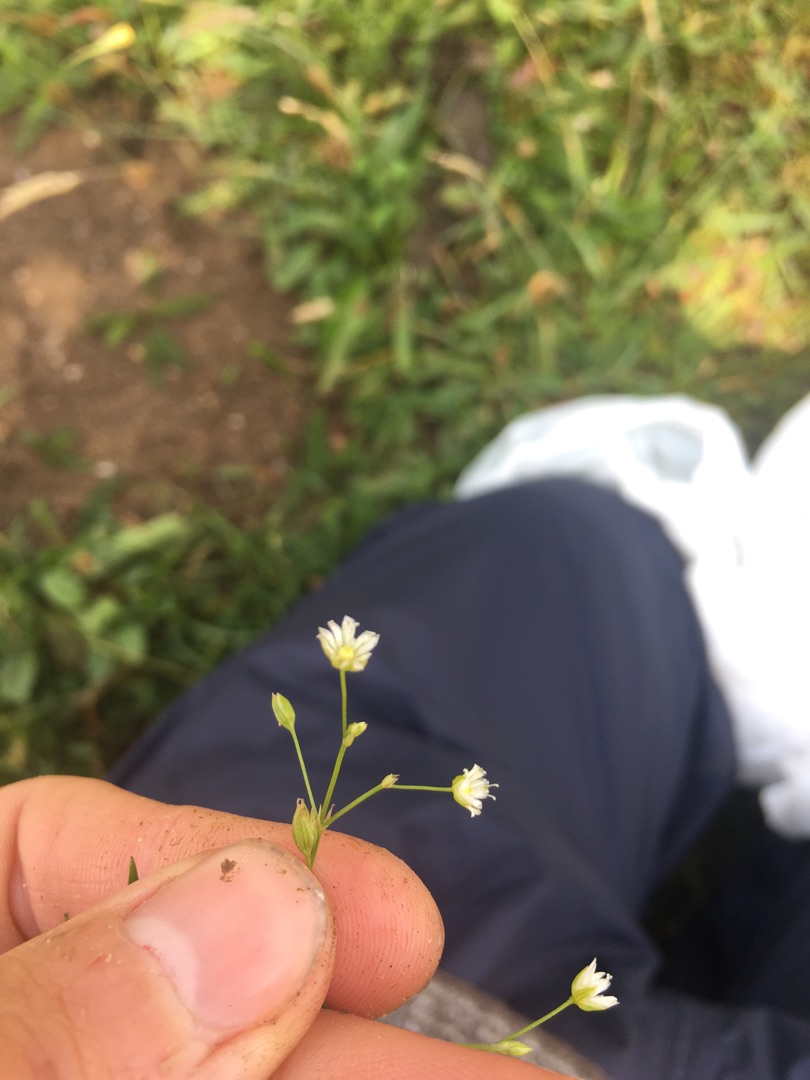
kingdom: Plantae
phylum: Tracheophyta
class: Magnoliopsida
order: Caryophyllales
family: Caryophyllaceae
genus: Stellaria
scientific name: Stellaria graminea
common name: Græsbladet fladstjerne
